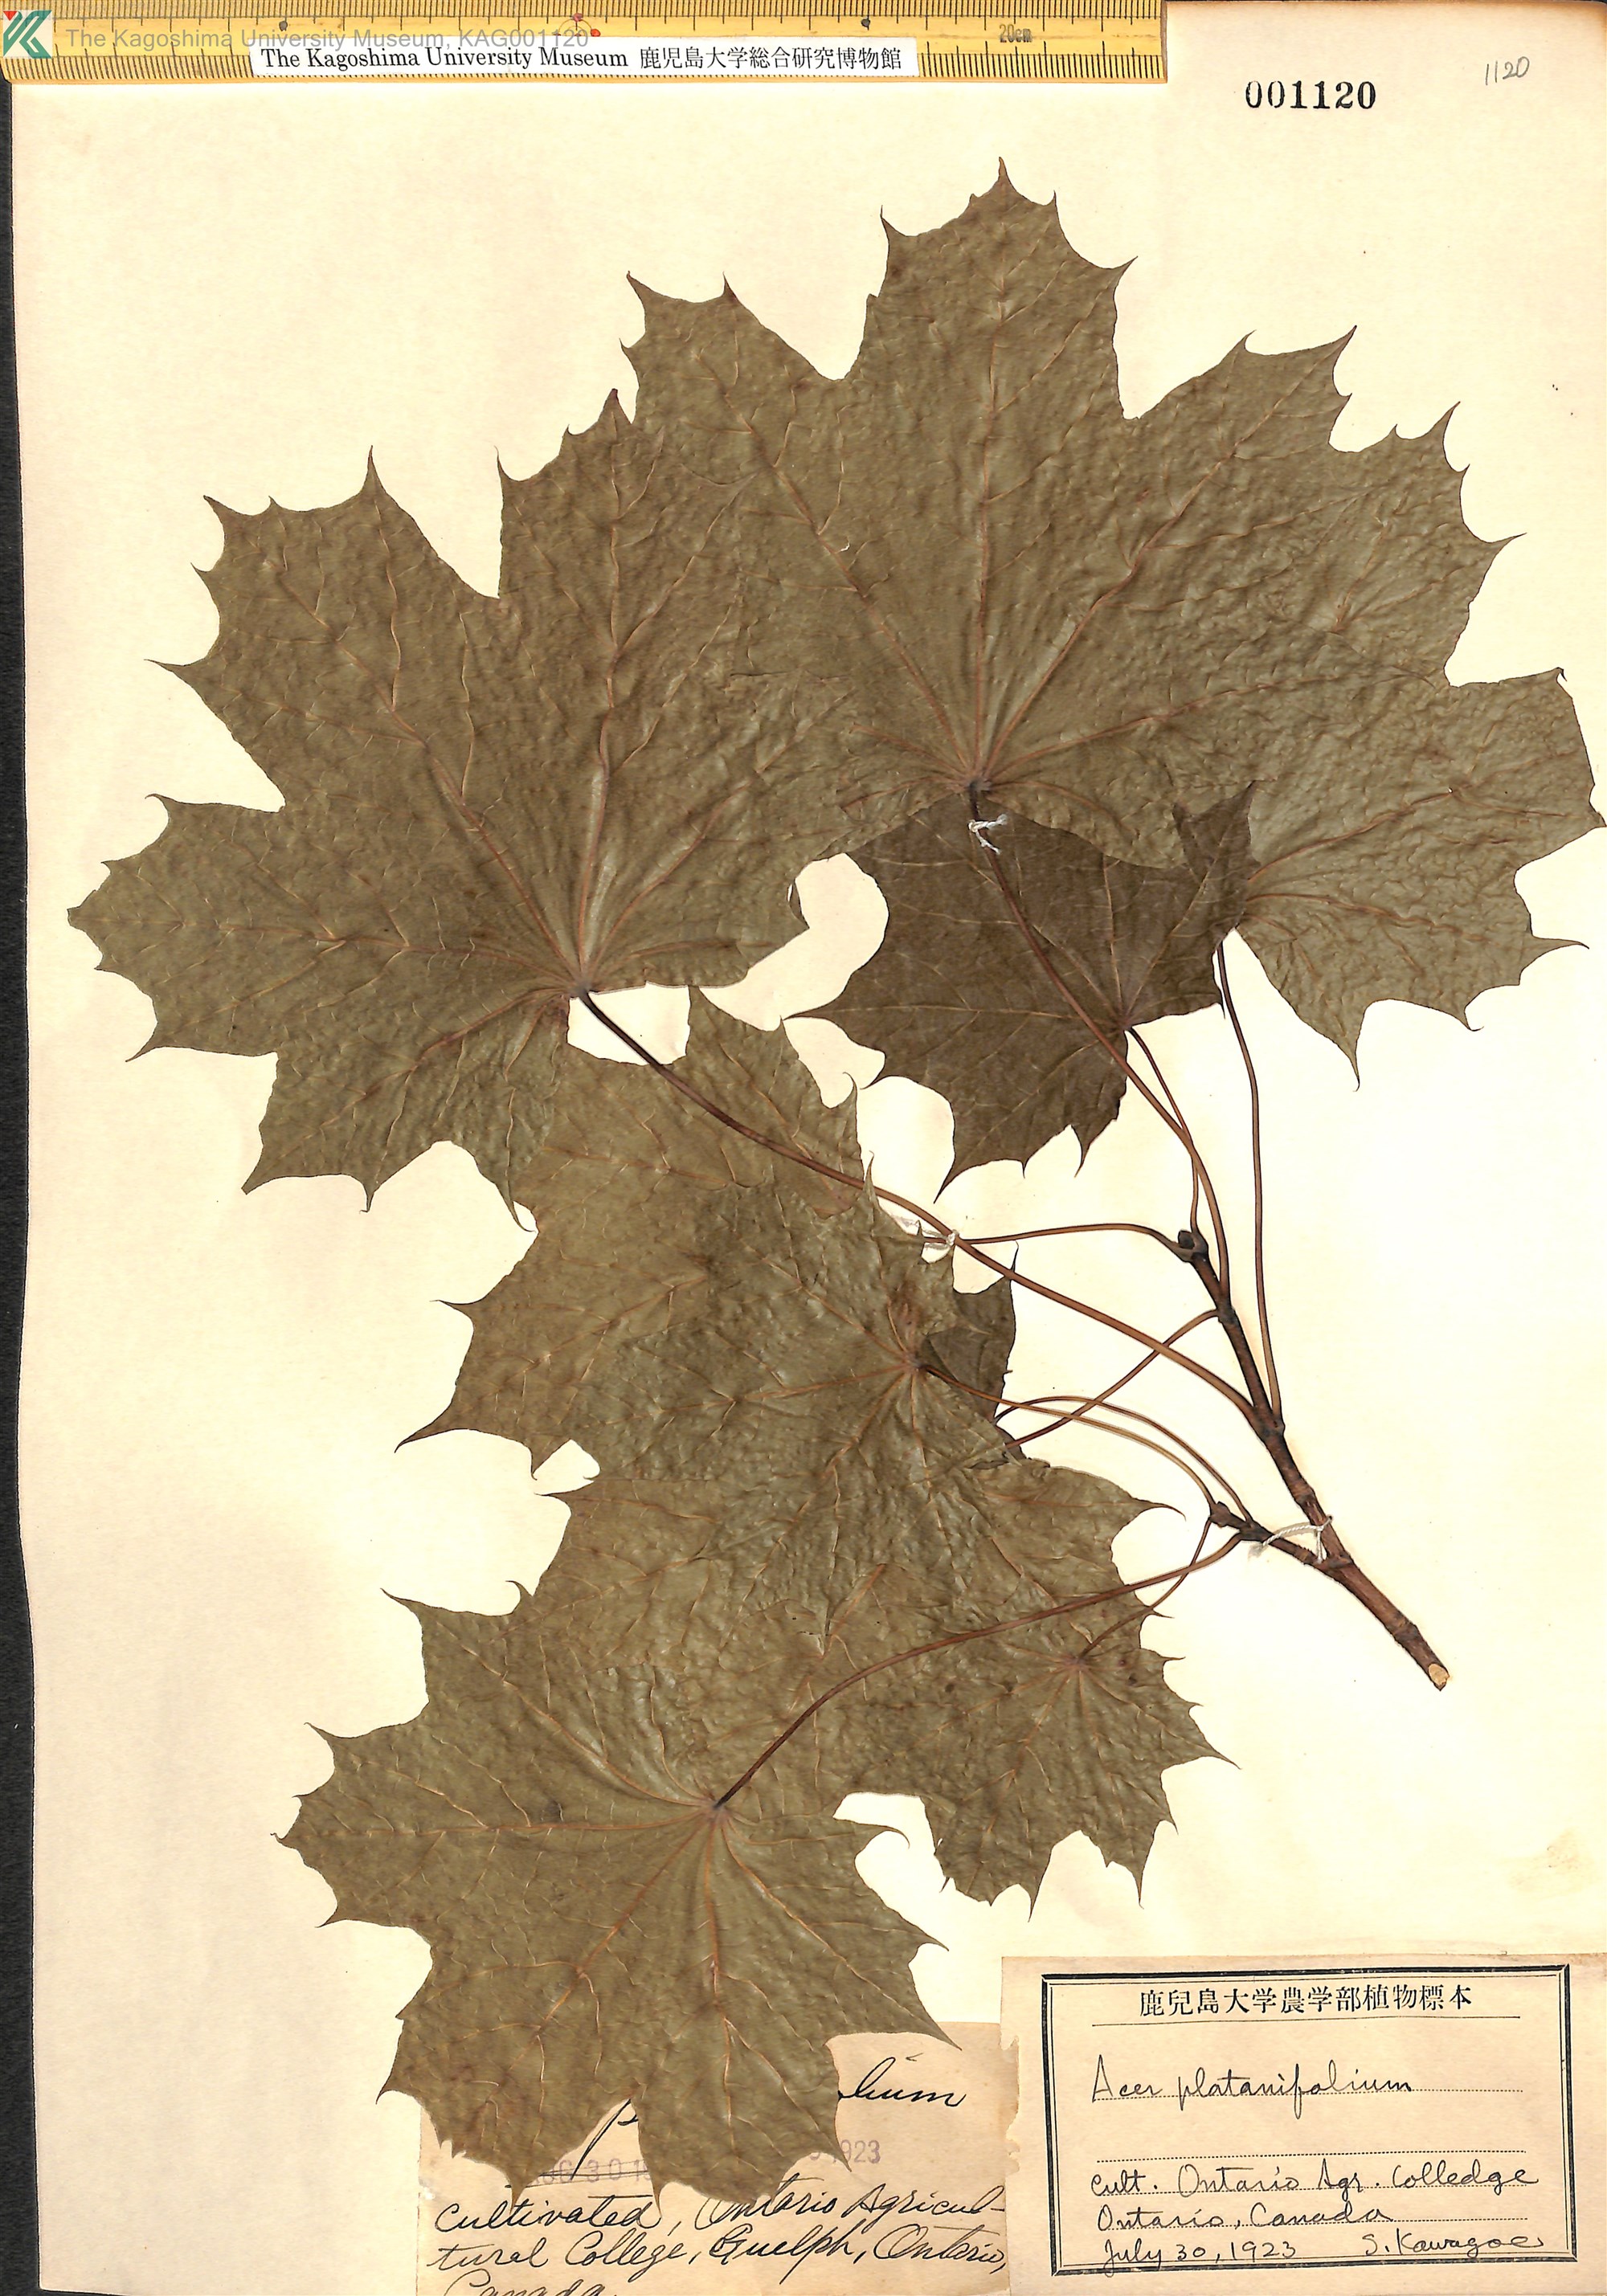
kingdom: Plantae
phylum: Tracheophyta
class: Magnoliopsida
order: Sapindales
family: Sapindaceae
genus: Acer
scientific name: Acer platanoides
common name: Norway maple
